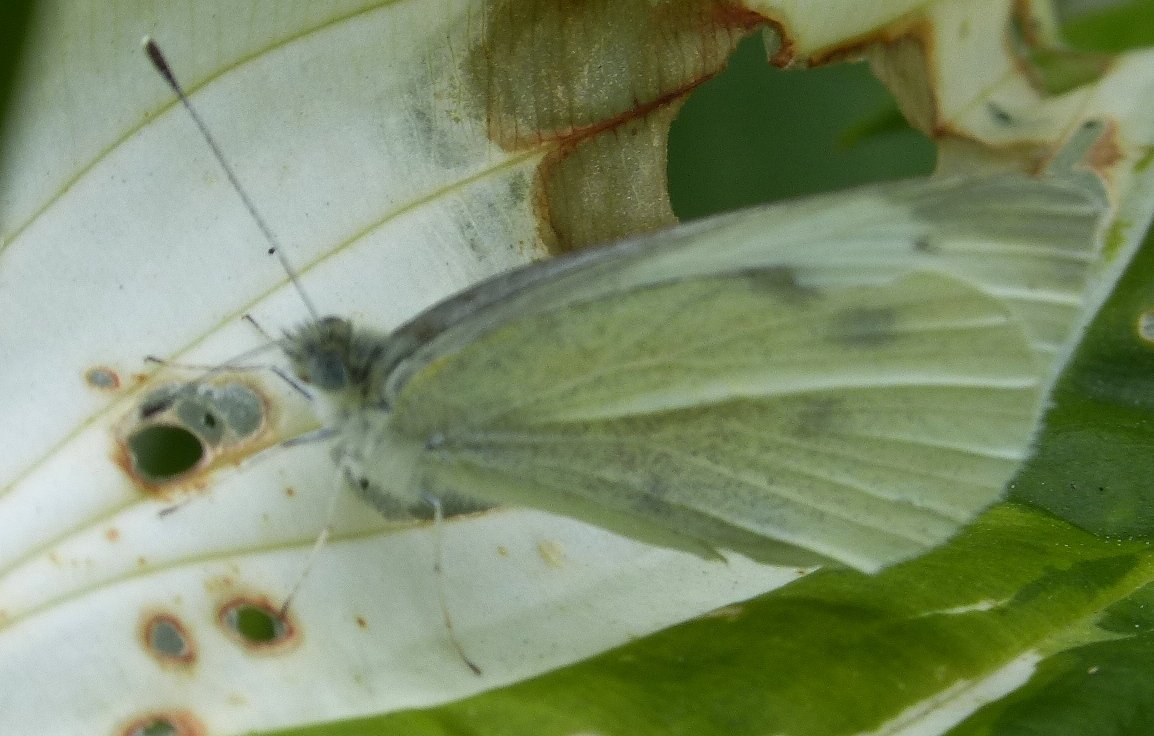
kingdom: Animalia
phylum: Arthropoda
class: Insecta
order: Lepidoptera
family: Pieridae
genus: Pieris
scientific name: Pieris rapae
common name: Cabbage White
